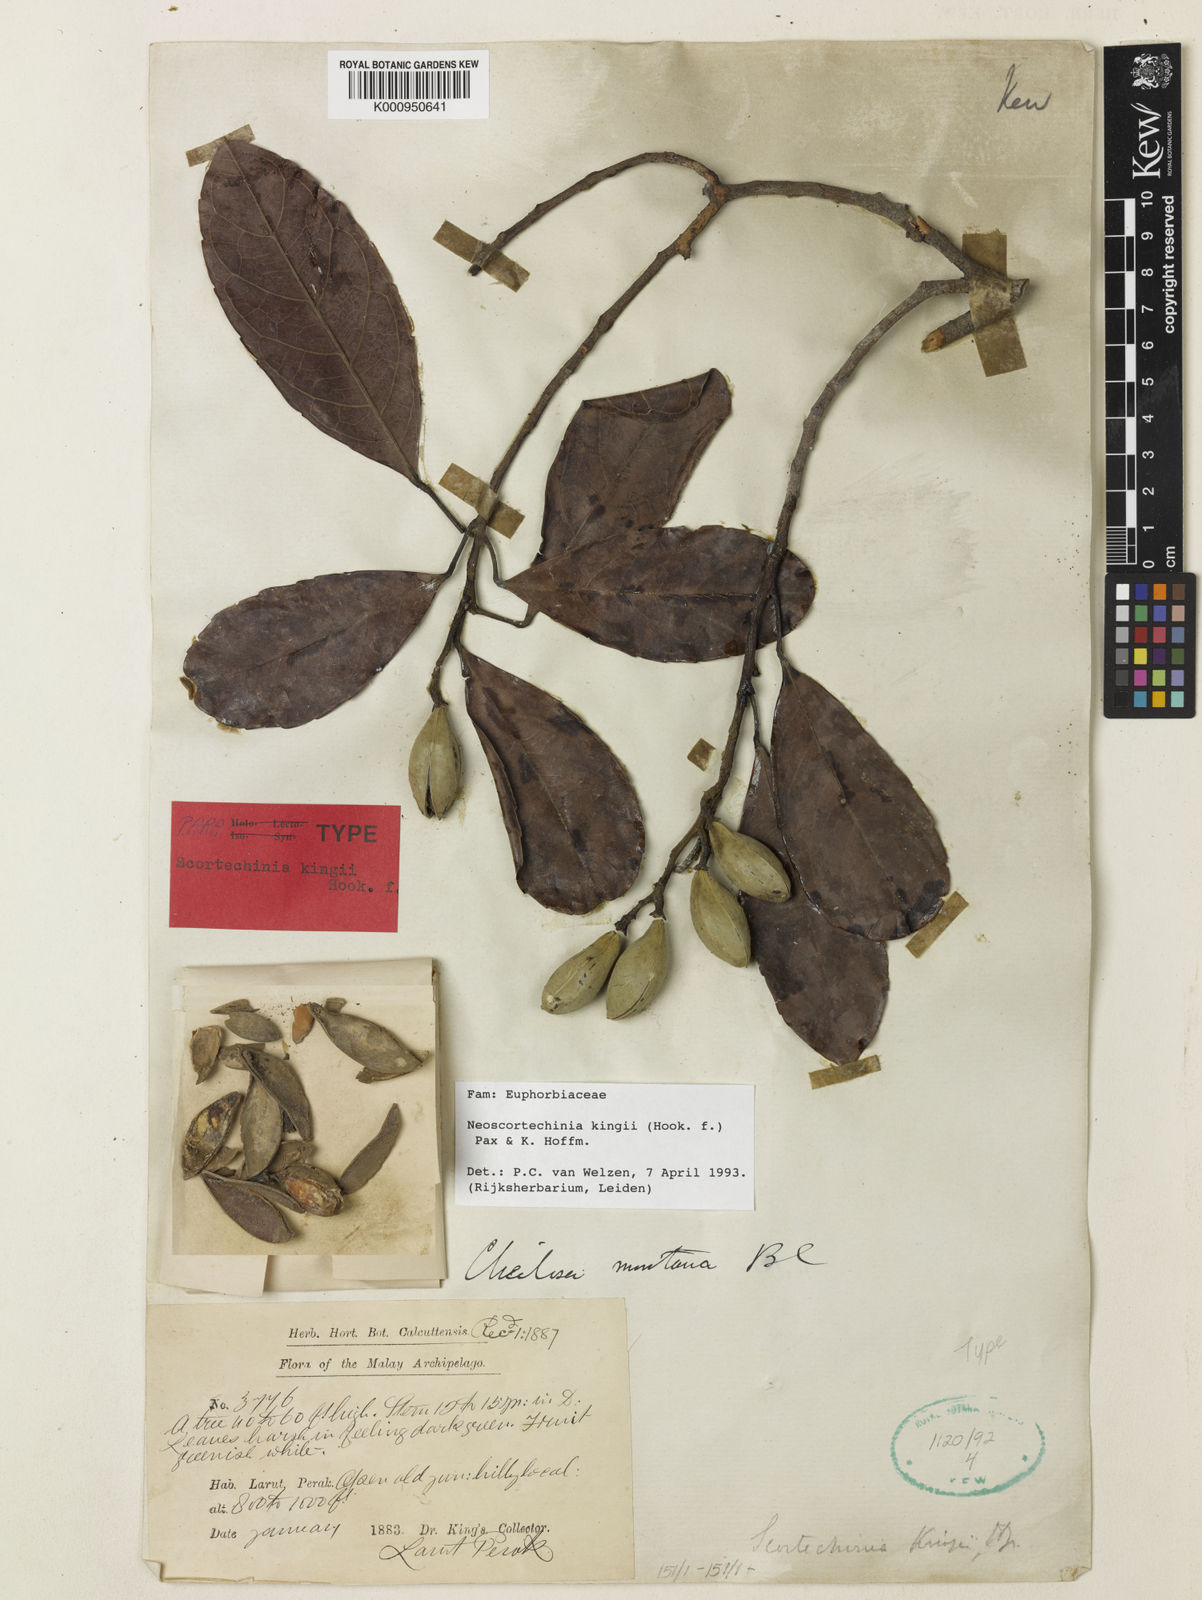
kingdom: Plantae
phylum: Tracheophyta
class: Magnoliopsida
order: Malpighiales
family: Euphorbiaceae
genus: Neoscortechinia
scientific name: Neoscortechinia kingii
